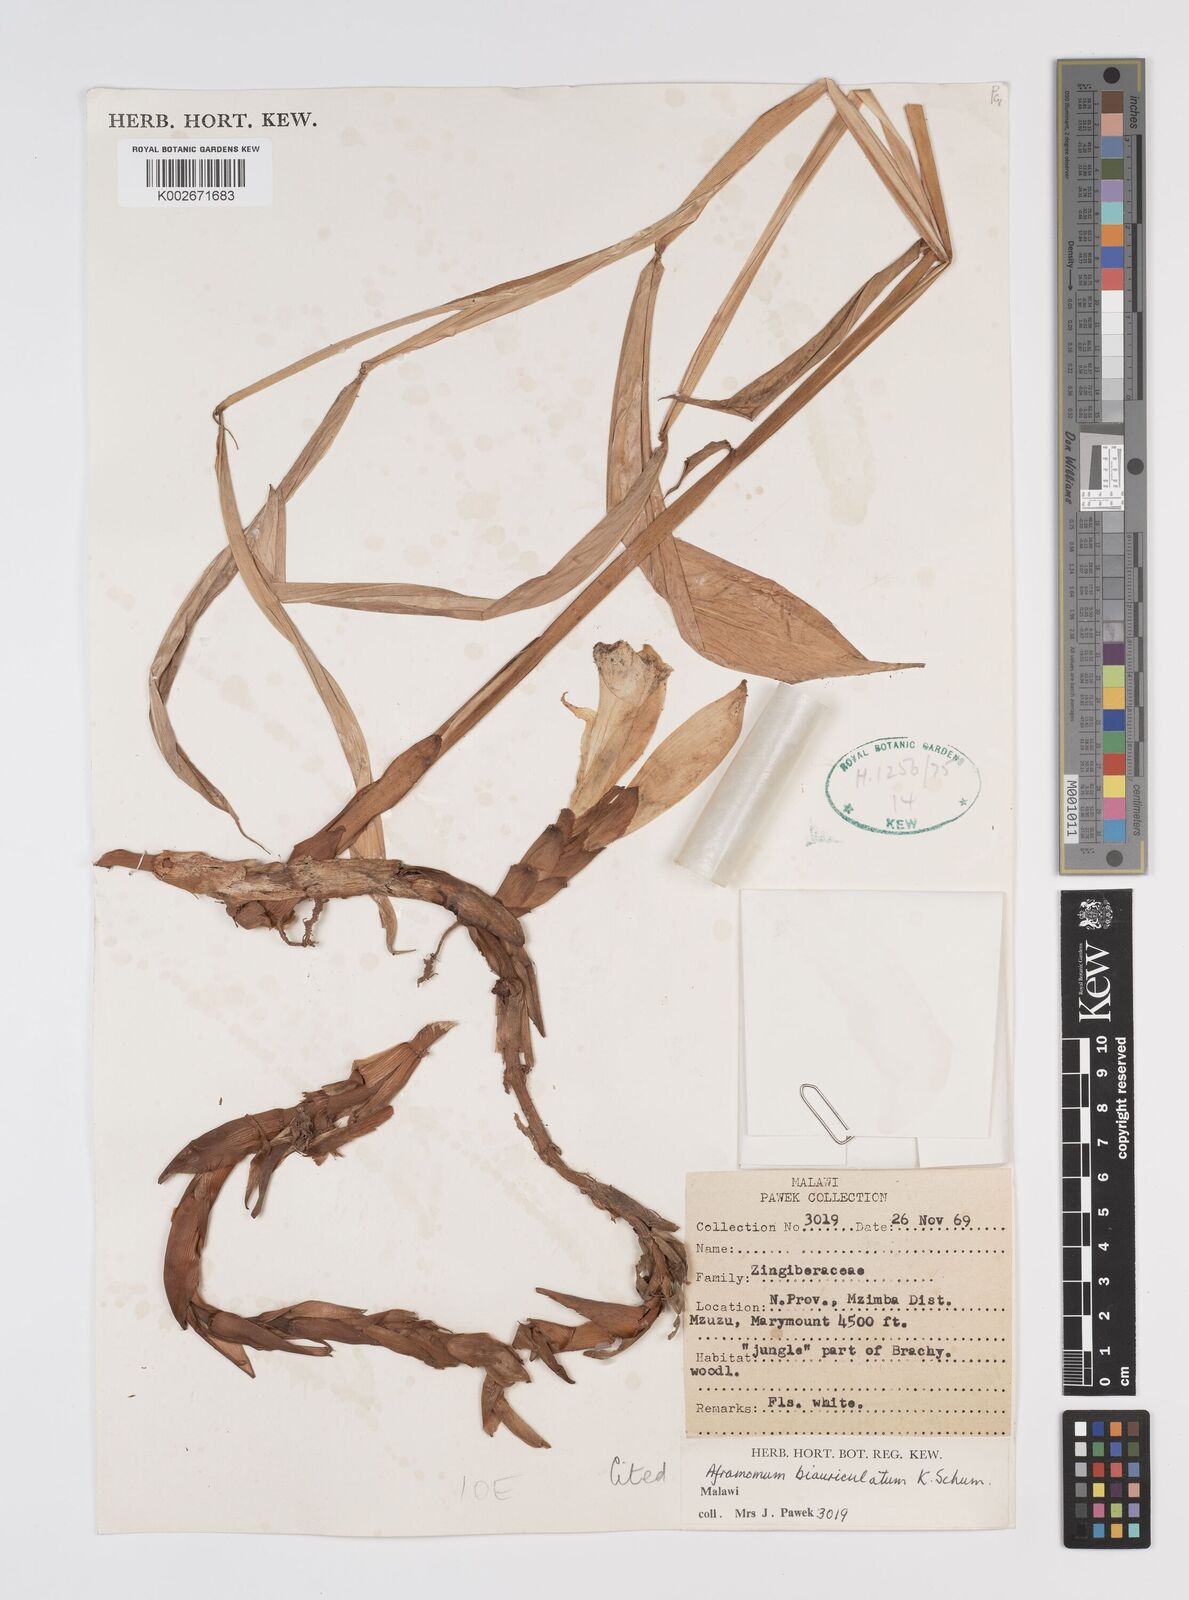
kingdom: Plantae
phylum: Tracheophyta
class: Liliopsida
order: Zingiberales
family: Zingiberaceae
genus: Aframomum
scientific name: Aframomum alboviolaceum
